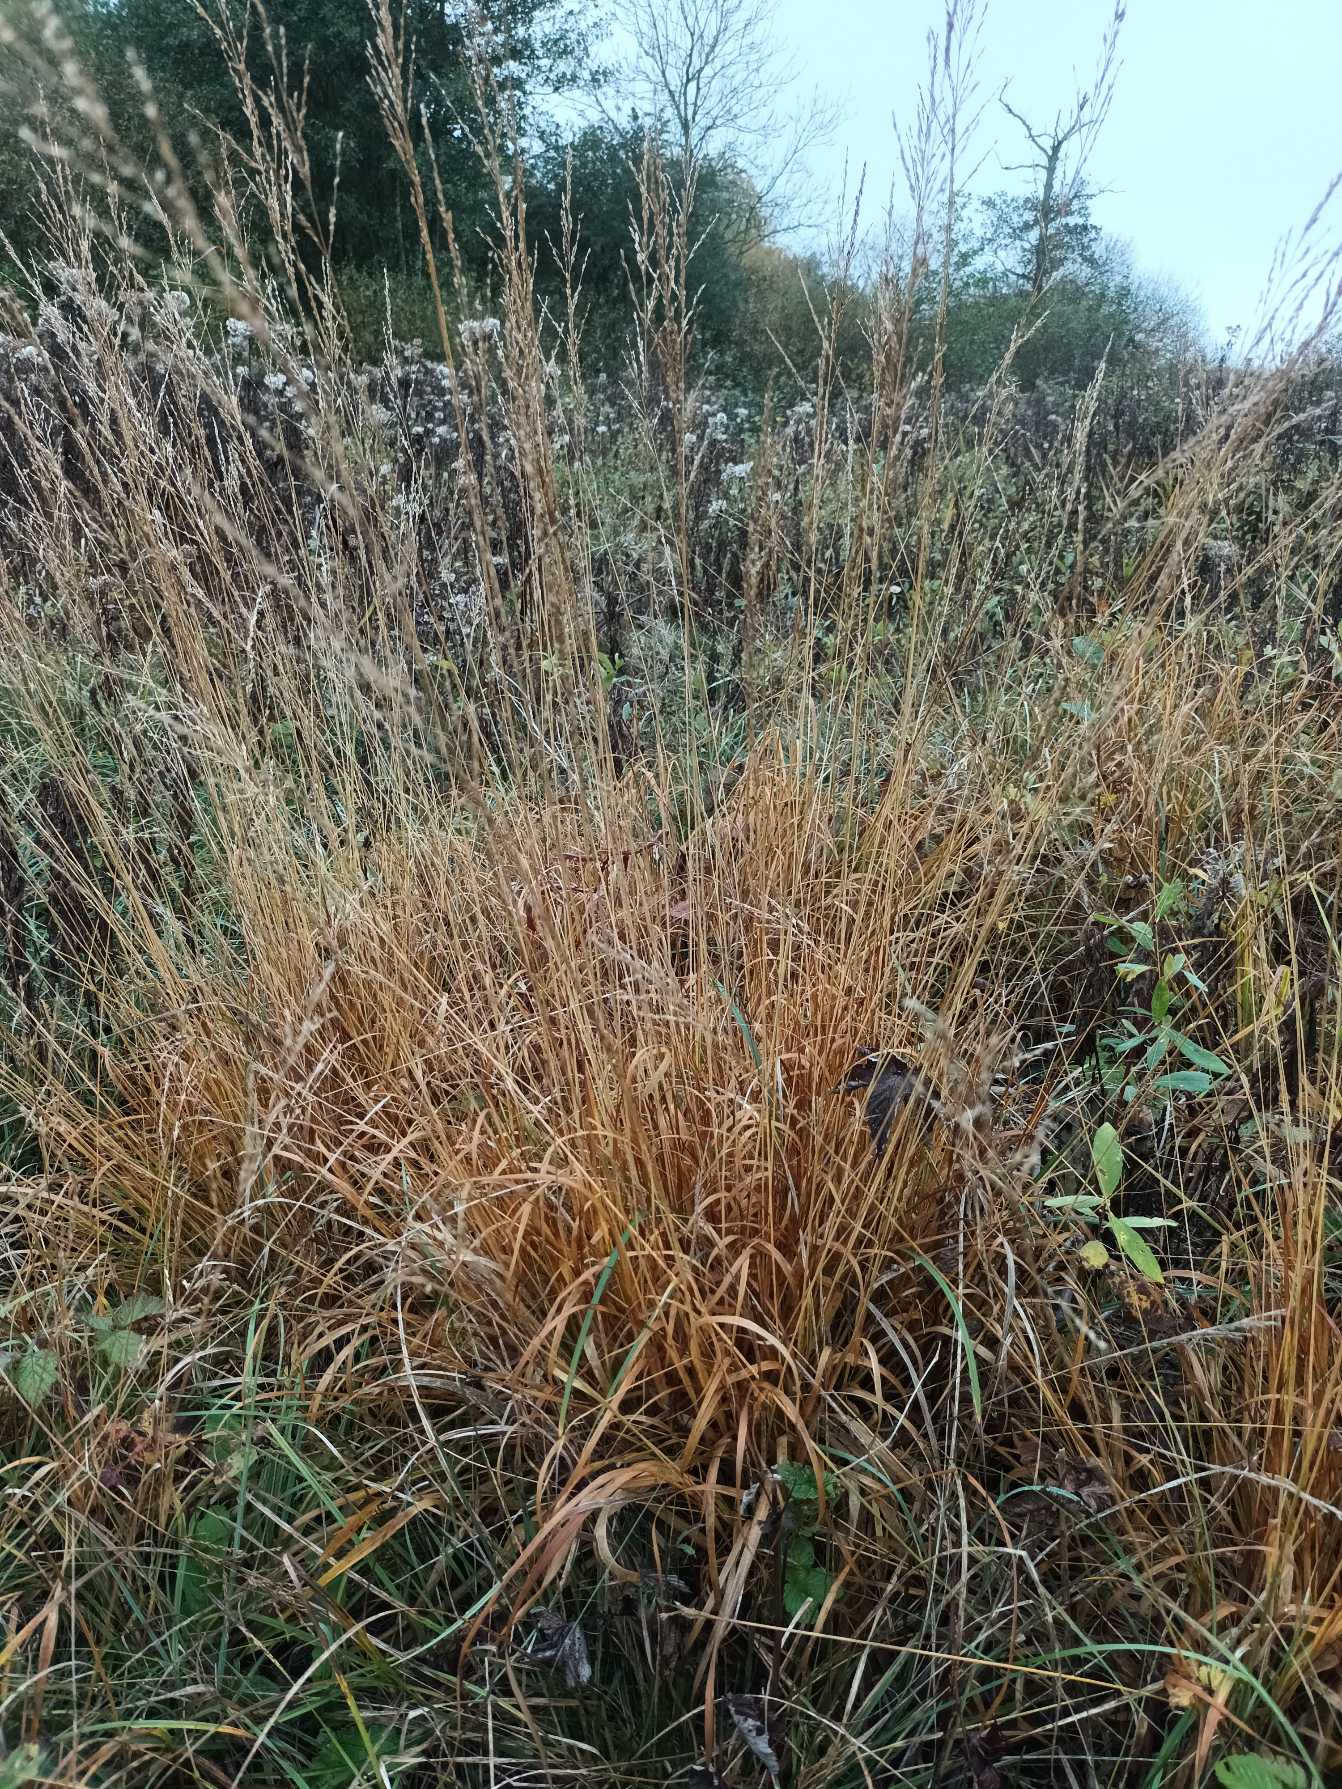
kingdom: Plantae
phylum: Tracheophyta
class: Liliopsida
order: Poales
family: Poaceae
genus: Molinia
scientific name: Molinia caerulea
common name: Blåtop
